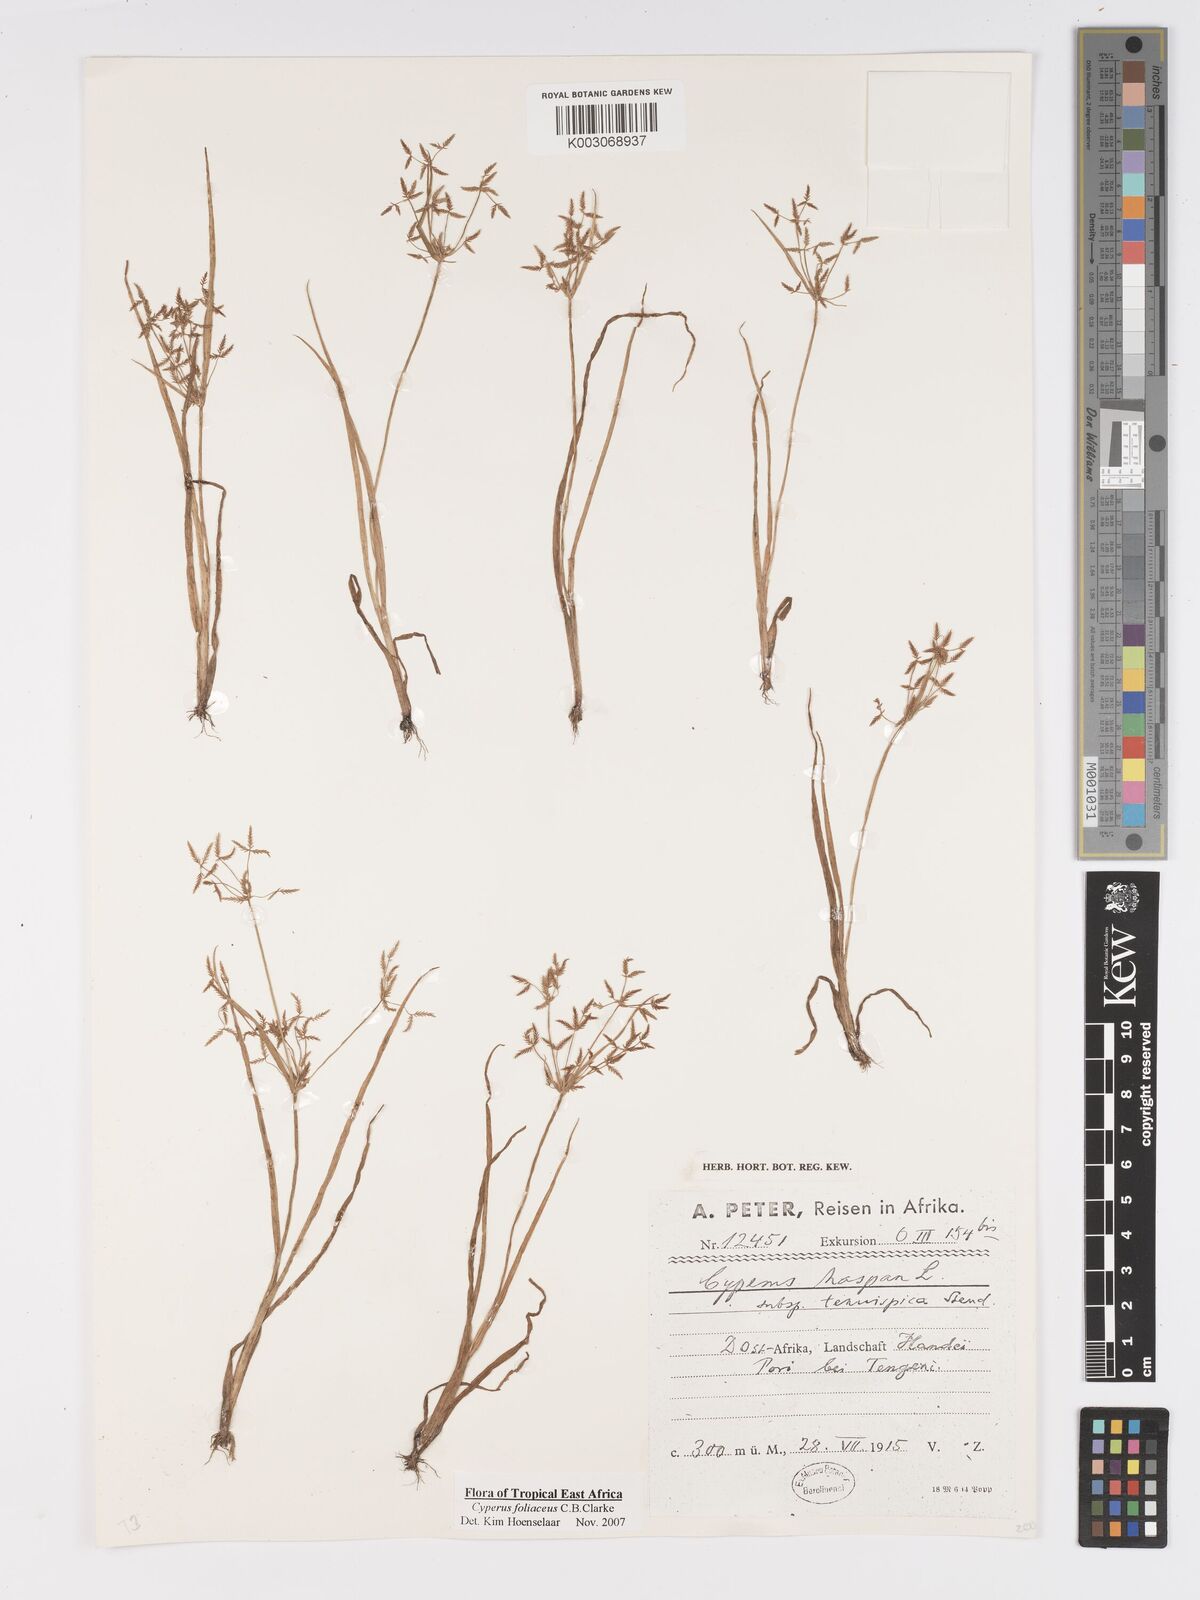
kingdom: Plantae
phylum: Tracheophyta
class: Liliopsida
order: Poales
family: Cyperaceae
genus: Cyperus
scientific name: Cyperus foliaceus
